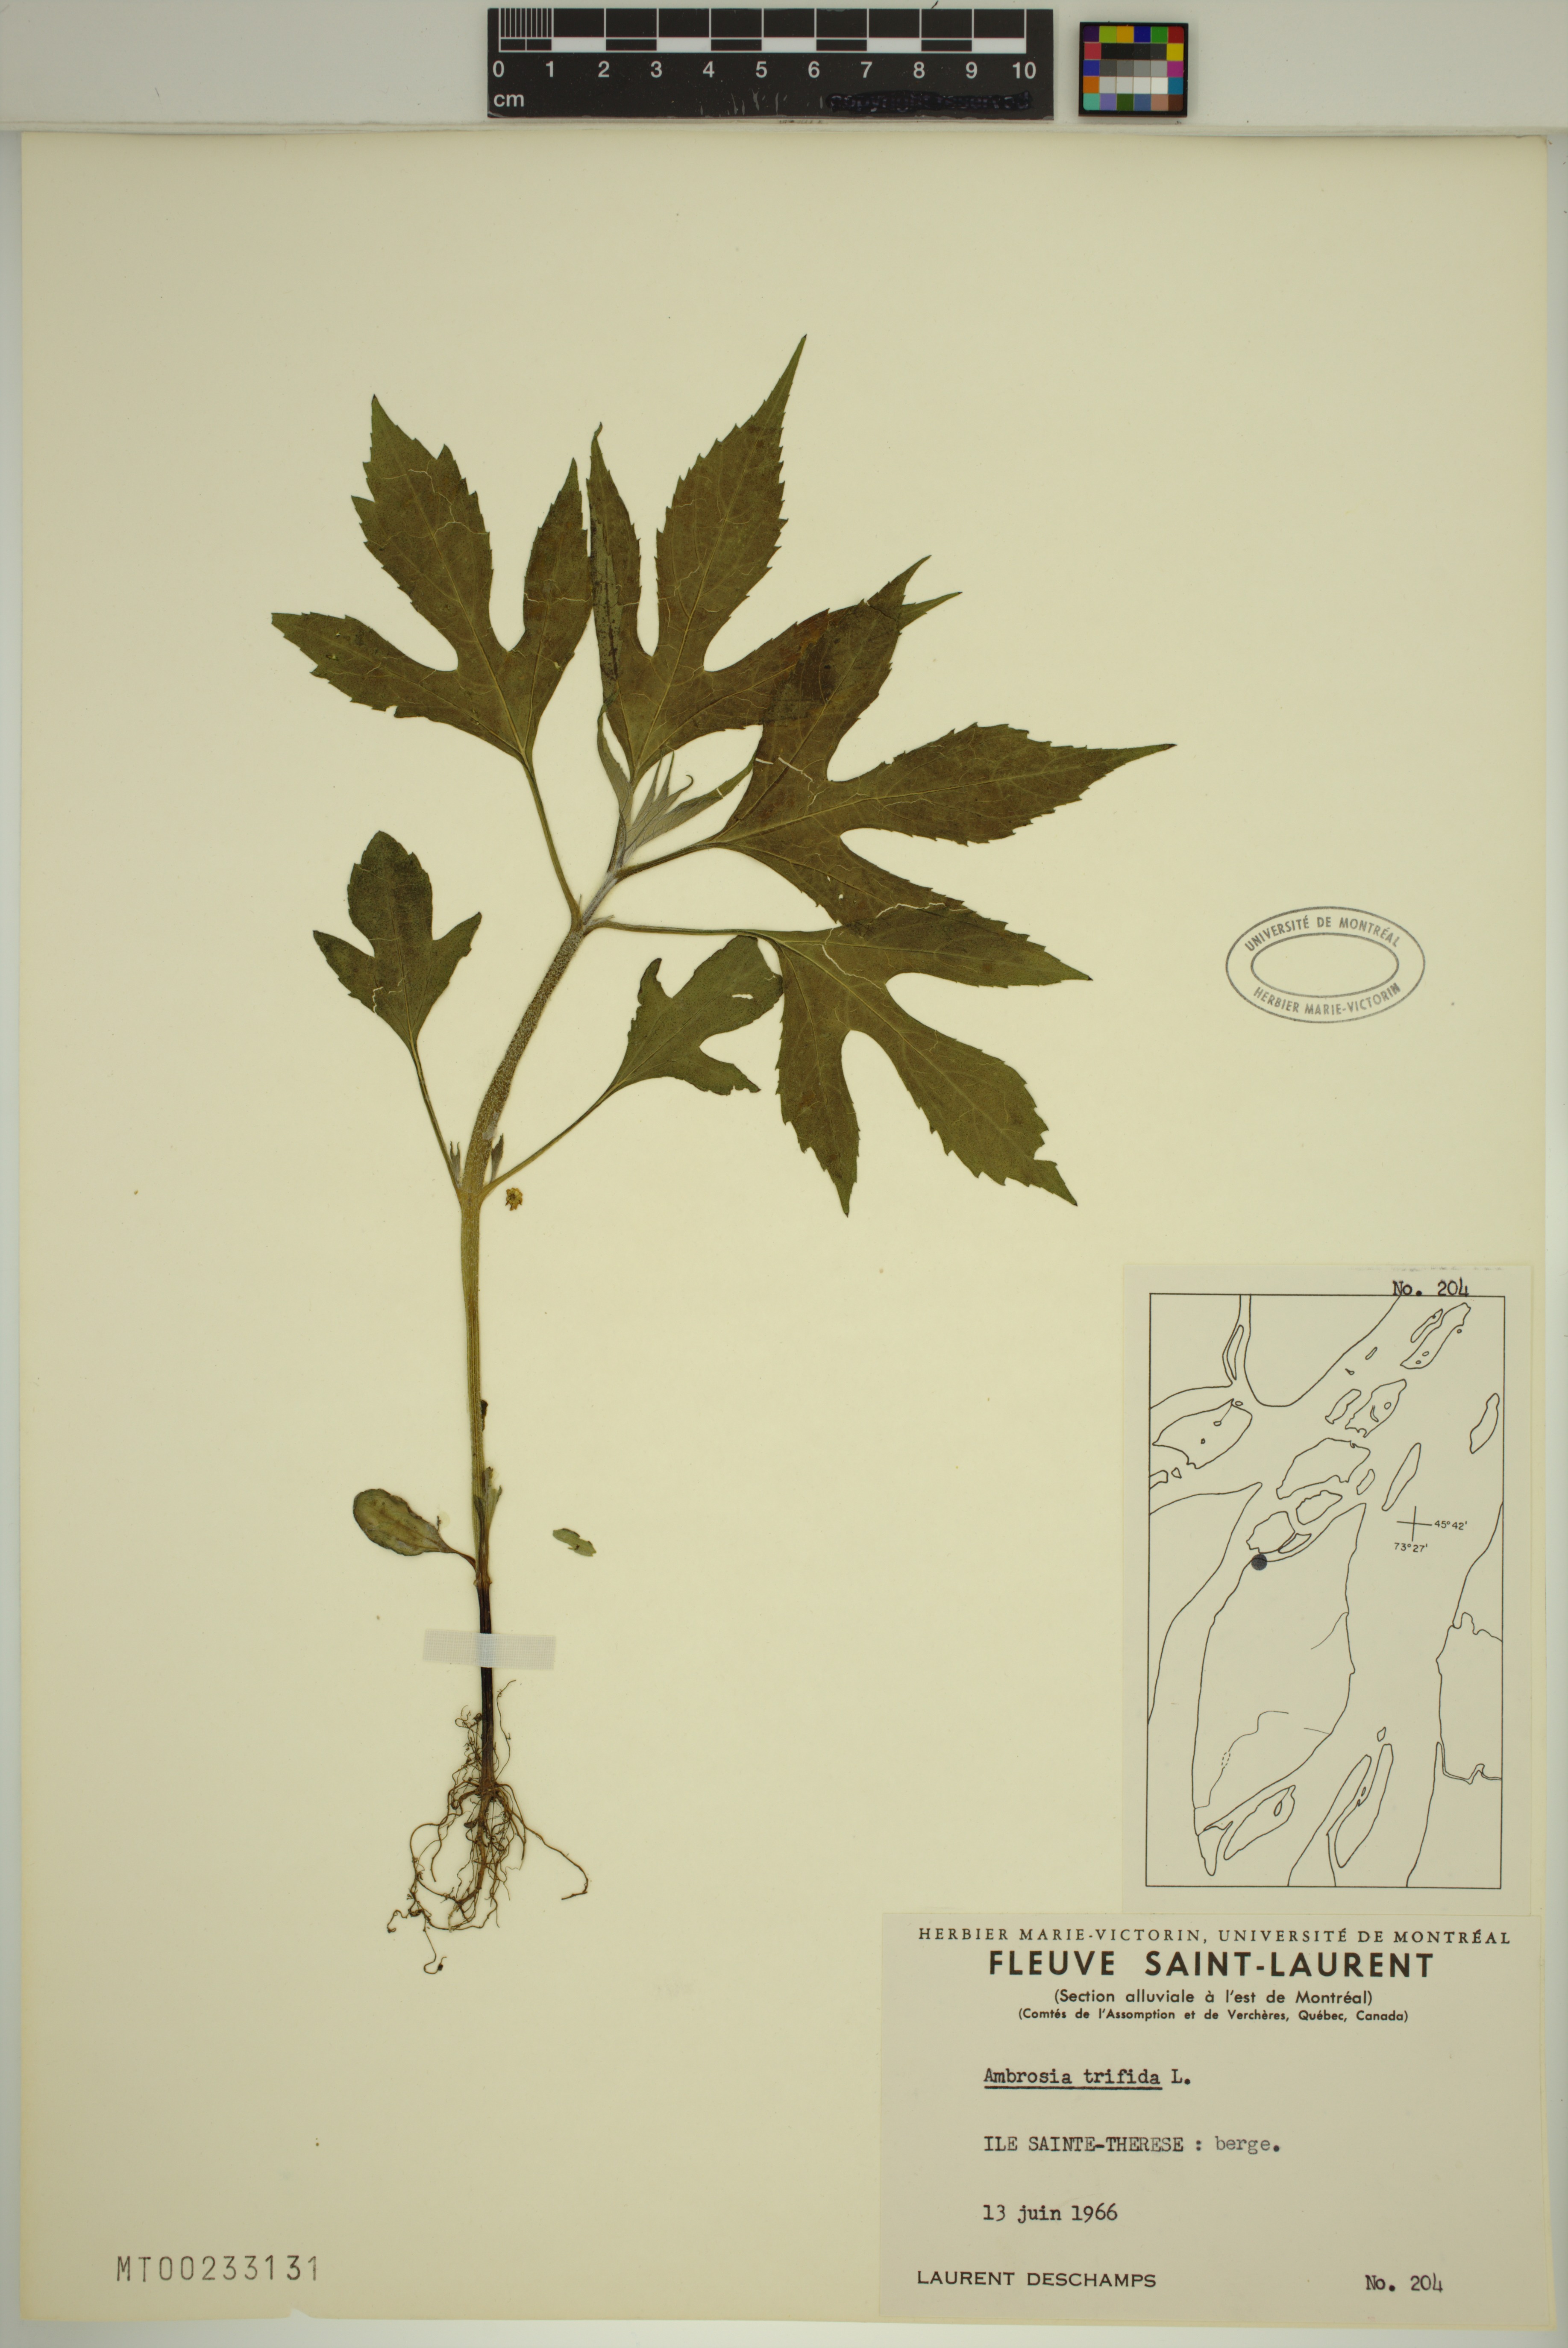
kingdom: Plantae
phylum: Tracheophyta
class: Magnoliopsida
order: Asterales
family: Asteraceae
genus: Ambrosia
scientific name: Ambrosia trifida
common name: Giant ragweed
